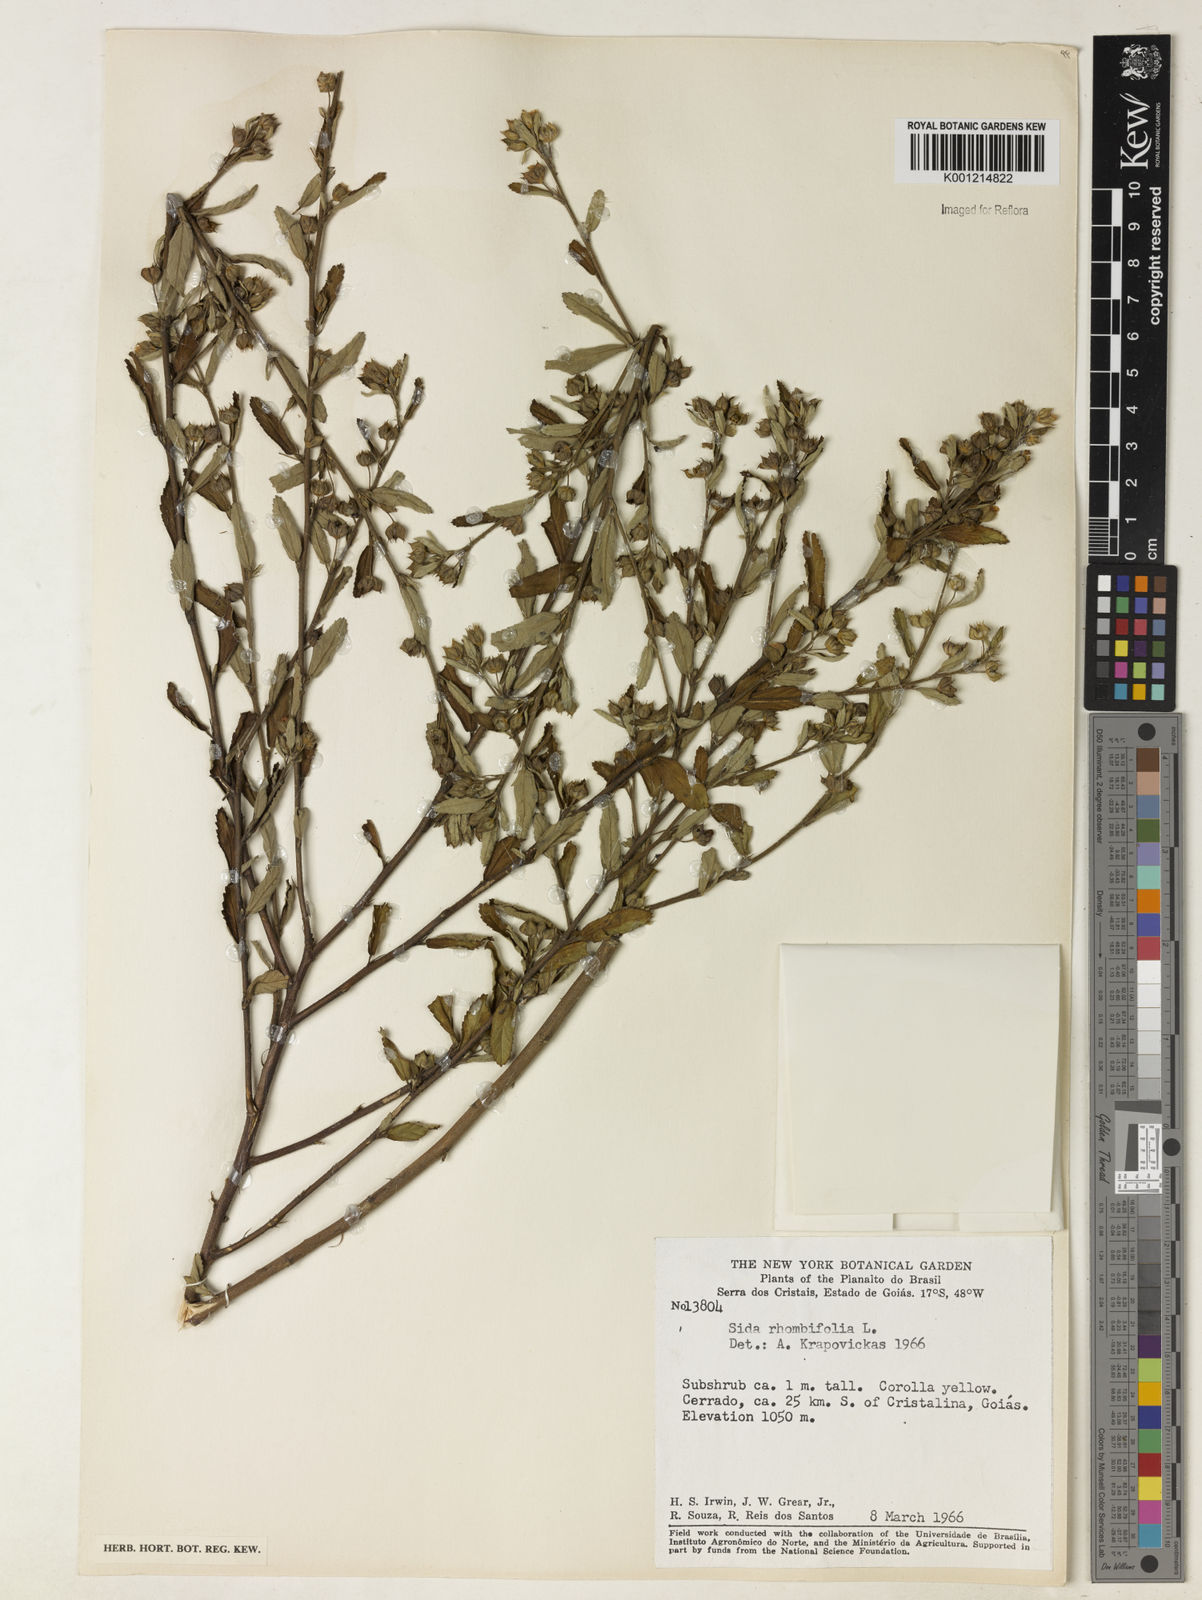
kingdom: Plantae
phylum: Tracheophyta
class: Magnoliopsida
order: Malvales
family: Malvaceae
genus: Sida
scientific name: Sida rhombifolia
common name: Queensland-hemp
